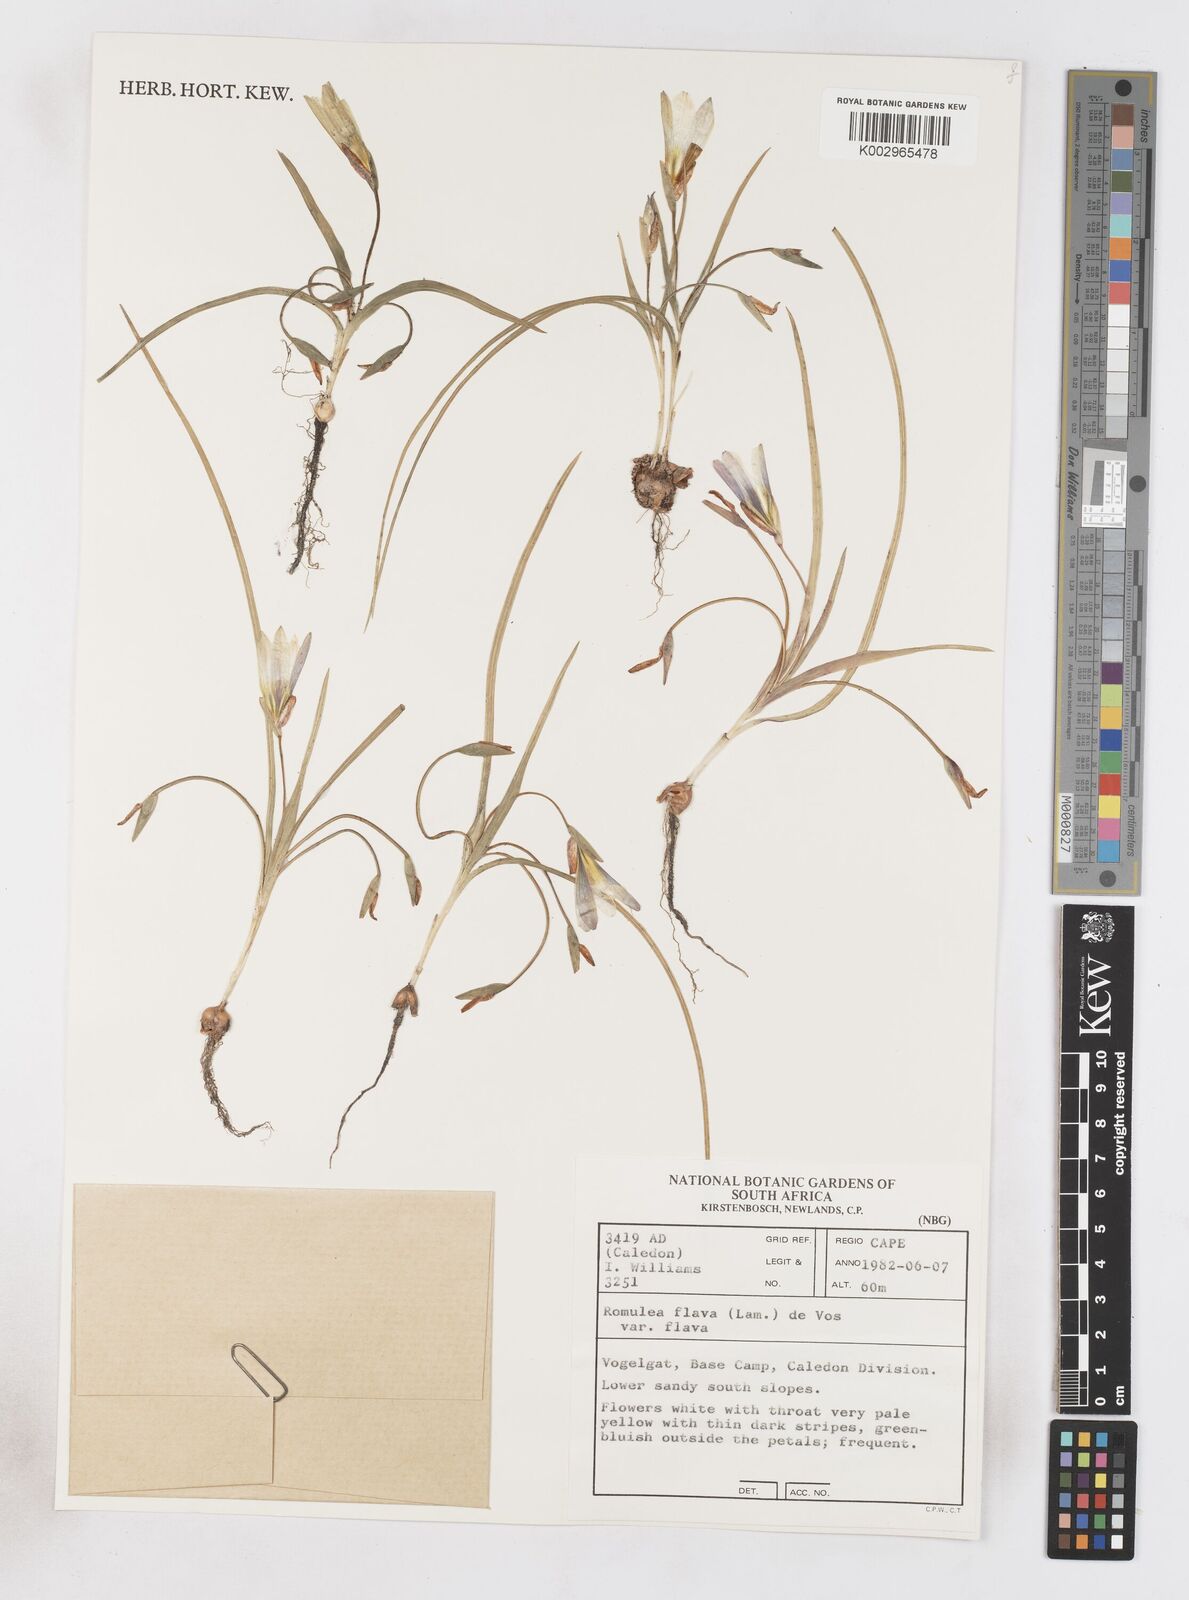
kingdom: Plantae
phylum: Tracheophyta
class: Liliopsida
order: Asparagales
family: Iridaceae
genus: Romulea
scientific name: Romulea flava
